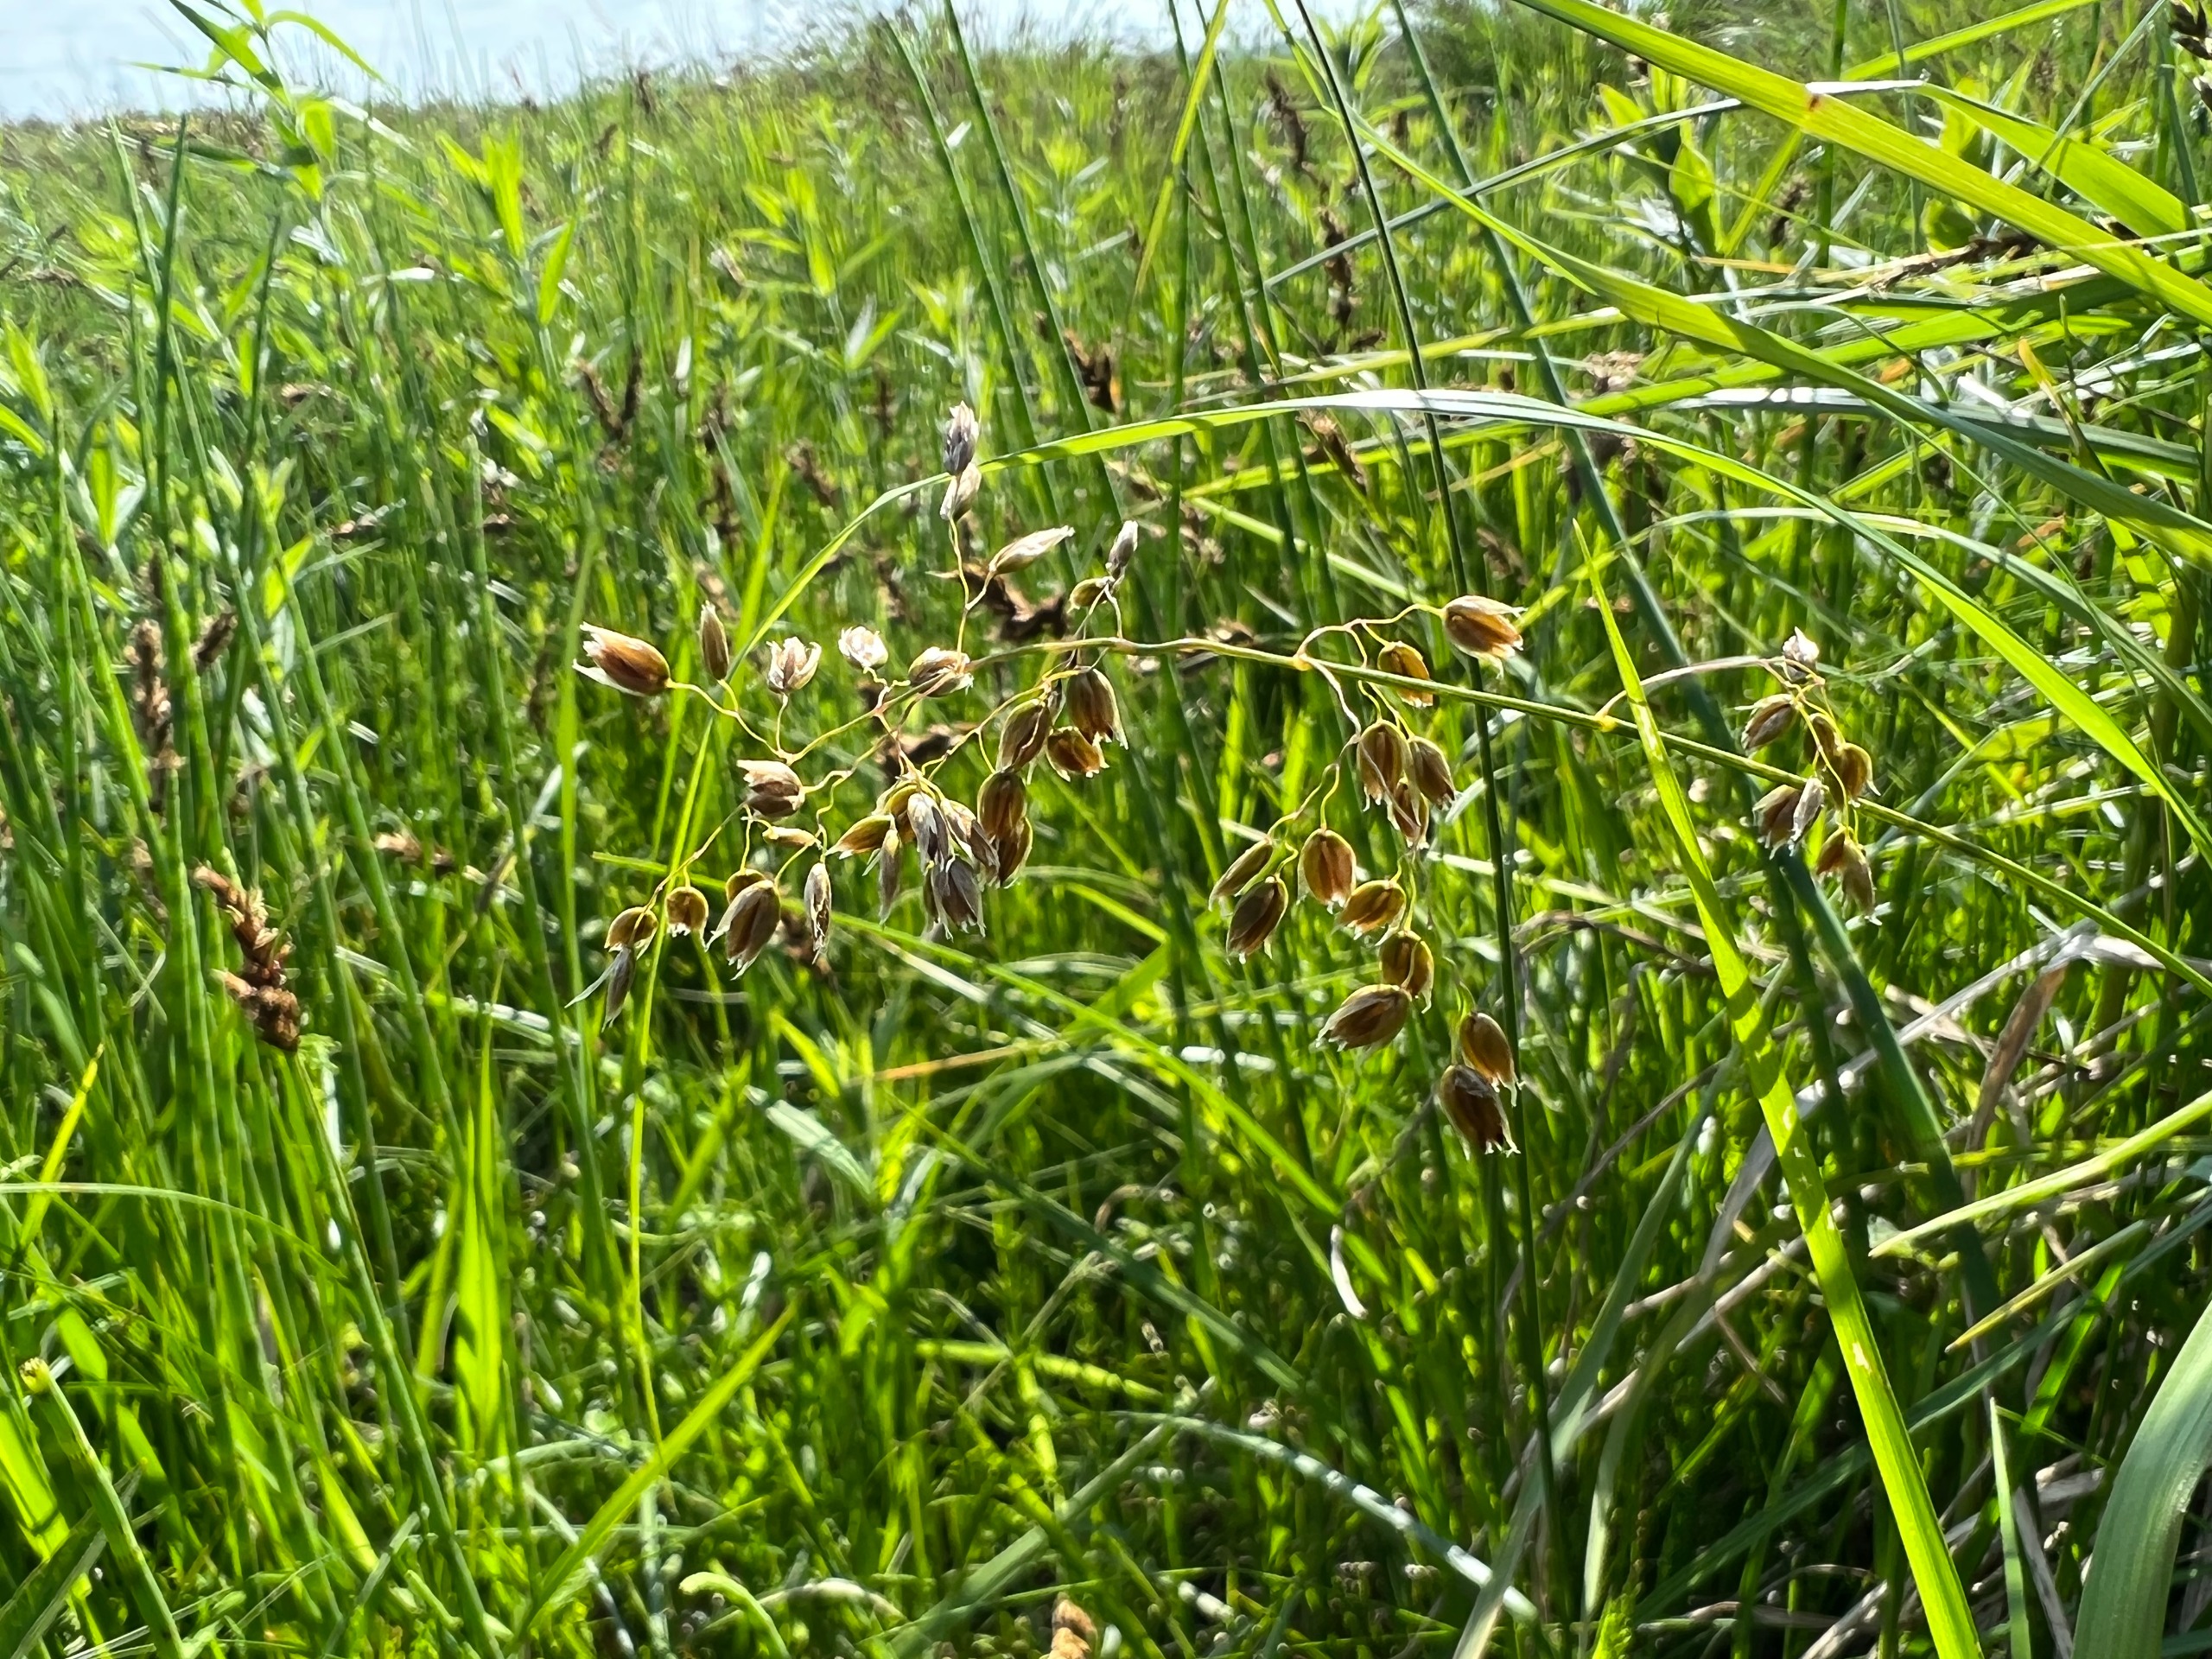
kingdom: Plantae
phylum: Tracheophyta
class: Liliopsida
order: Poales
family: Poaceae
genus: Anthoxanthum
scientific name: Anthoxanthum nitens
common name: Festgræs
